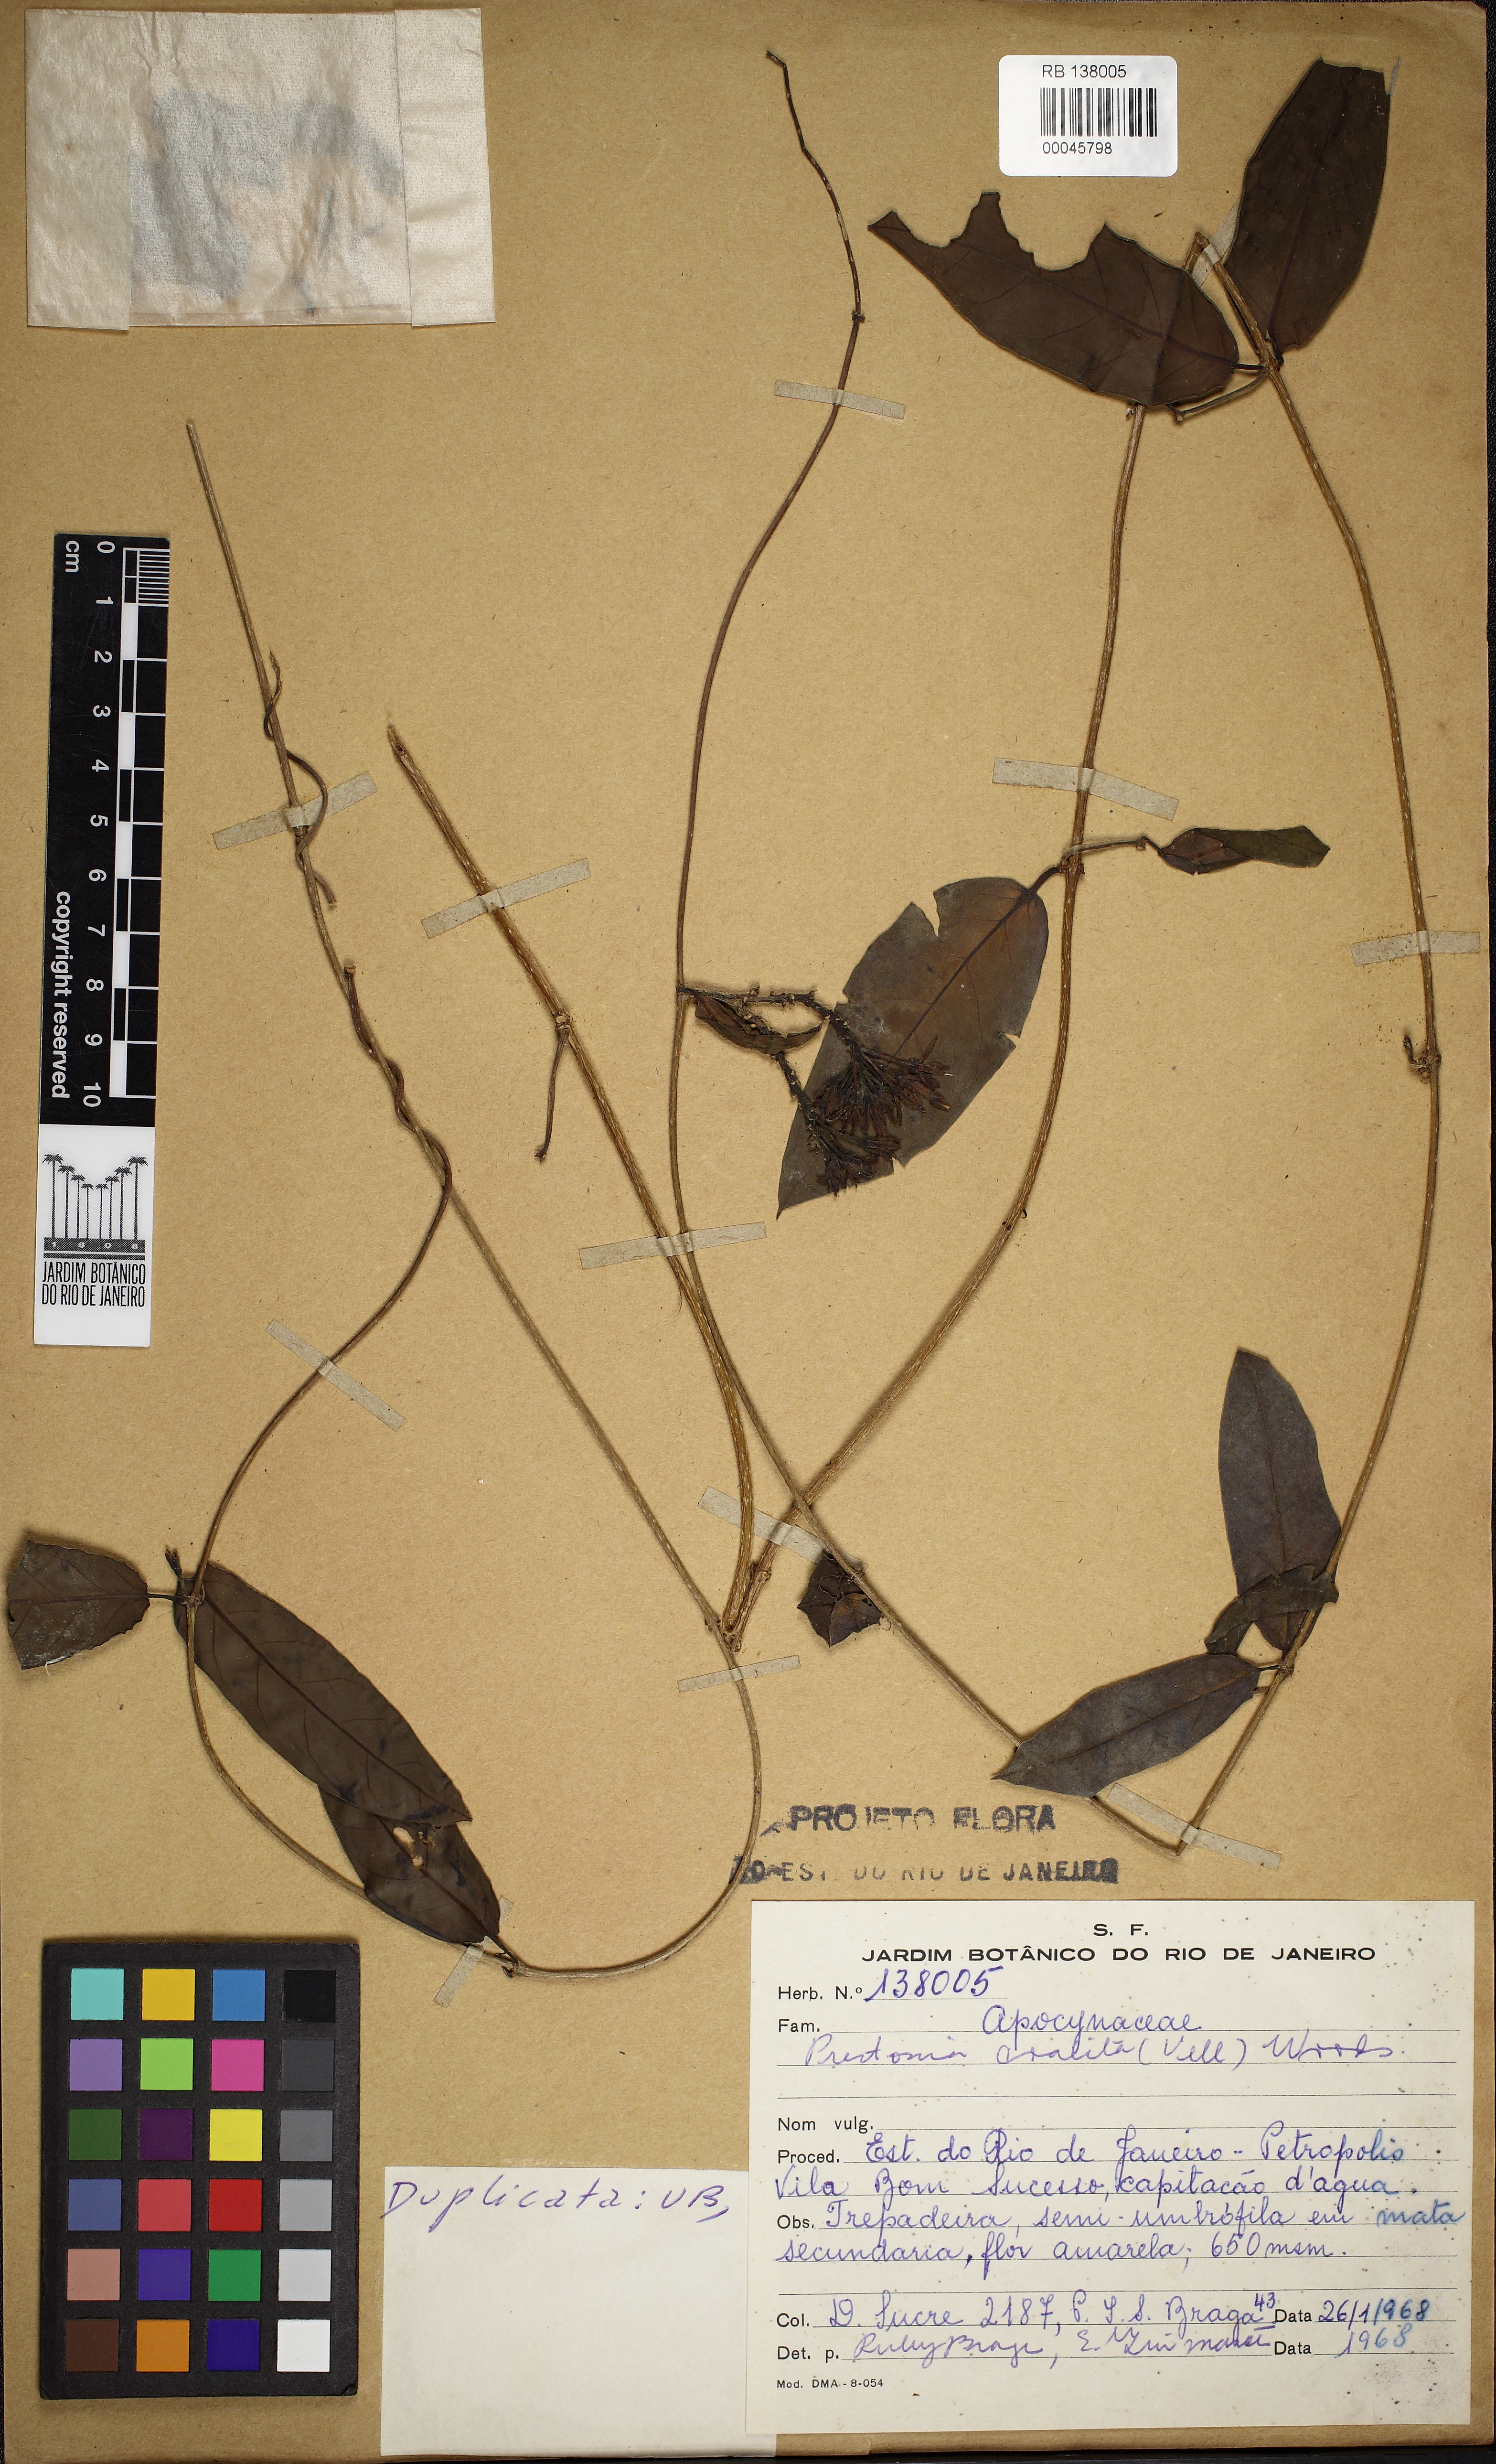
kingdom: Plantae
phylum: Tracheophyta
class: Magnoliopsida
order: Gentianales
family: Apocynaceae
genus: Prestonia
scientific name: Prestonia coalita
